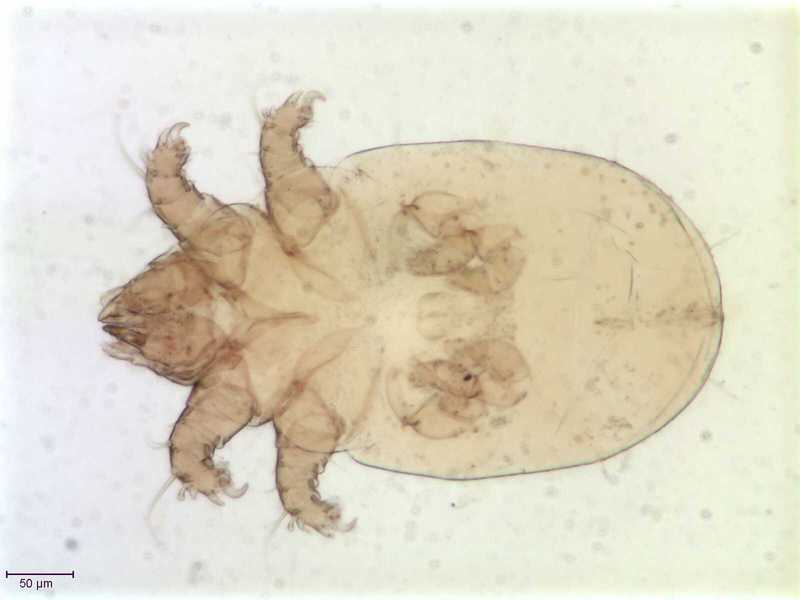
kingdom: Animalia
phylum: Arthropoda
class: Arachnida
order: Sarcoptiformes
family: Acaridae
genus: Schwiebea
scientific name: Schwiebea cavernicola
